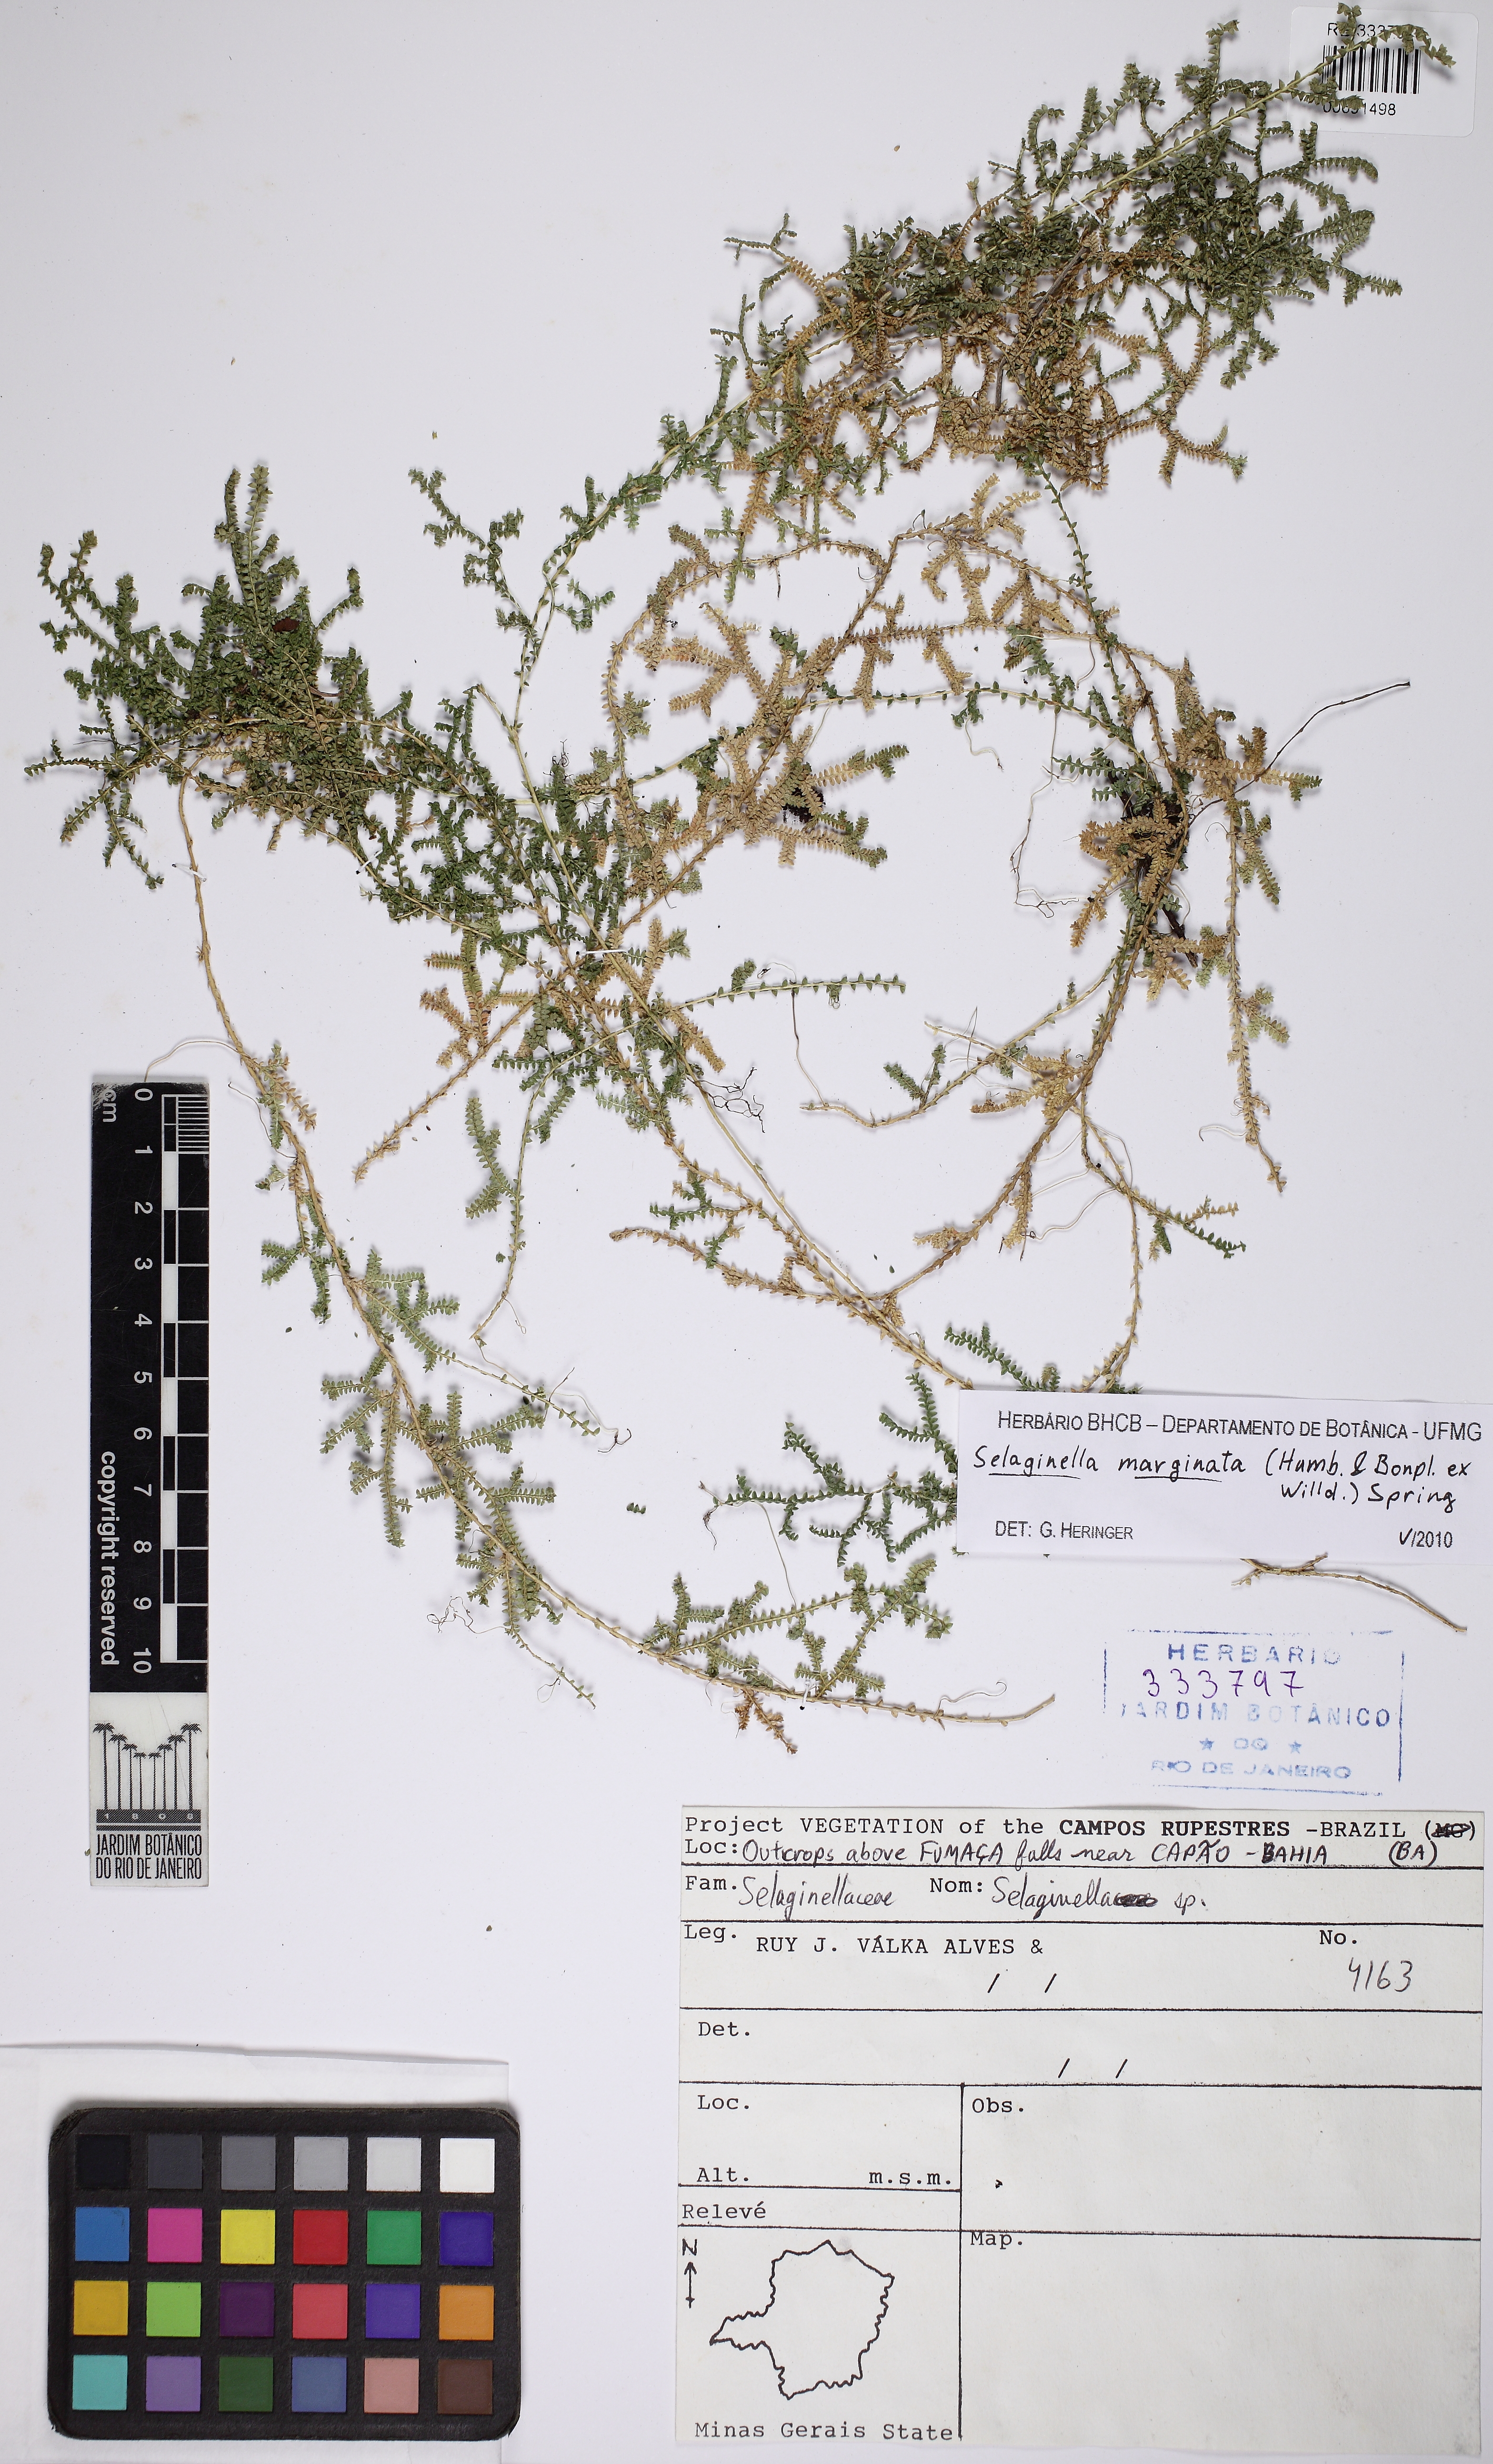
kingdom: Plantae
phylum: Tracheophyta
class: Lycopodiopsida
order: Selaginellales
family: Selaginellaceae
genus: Selaginella
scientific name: Selaginella marginata
